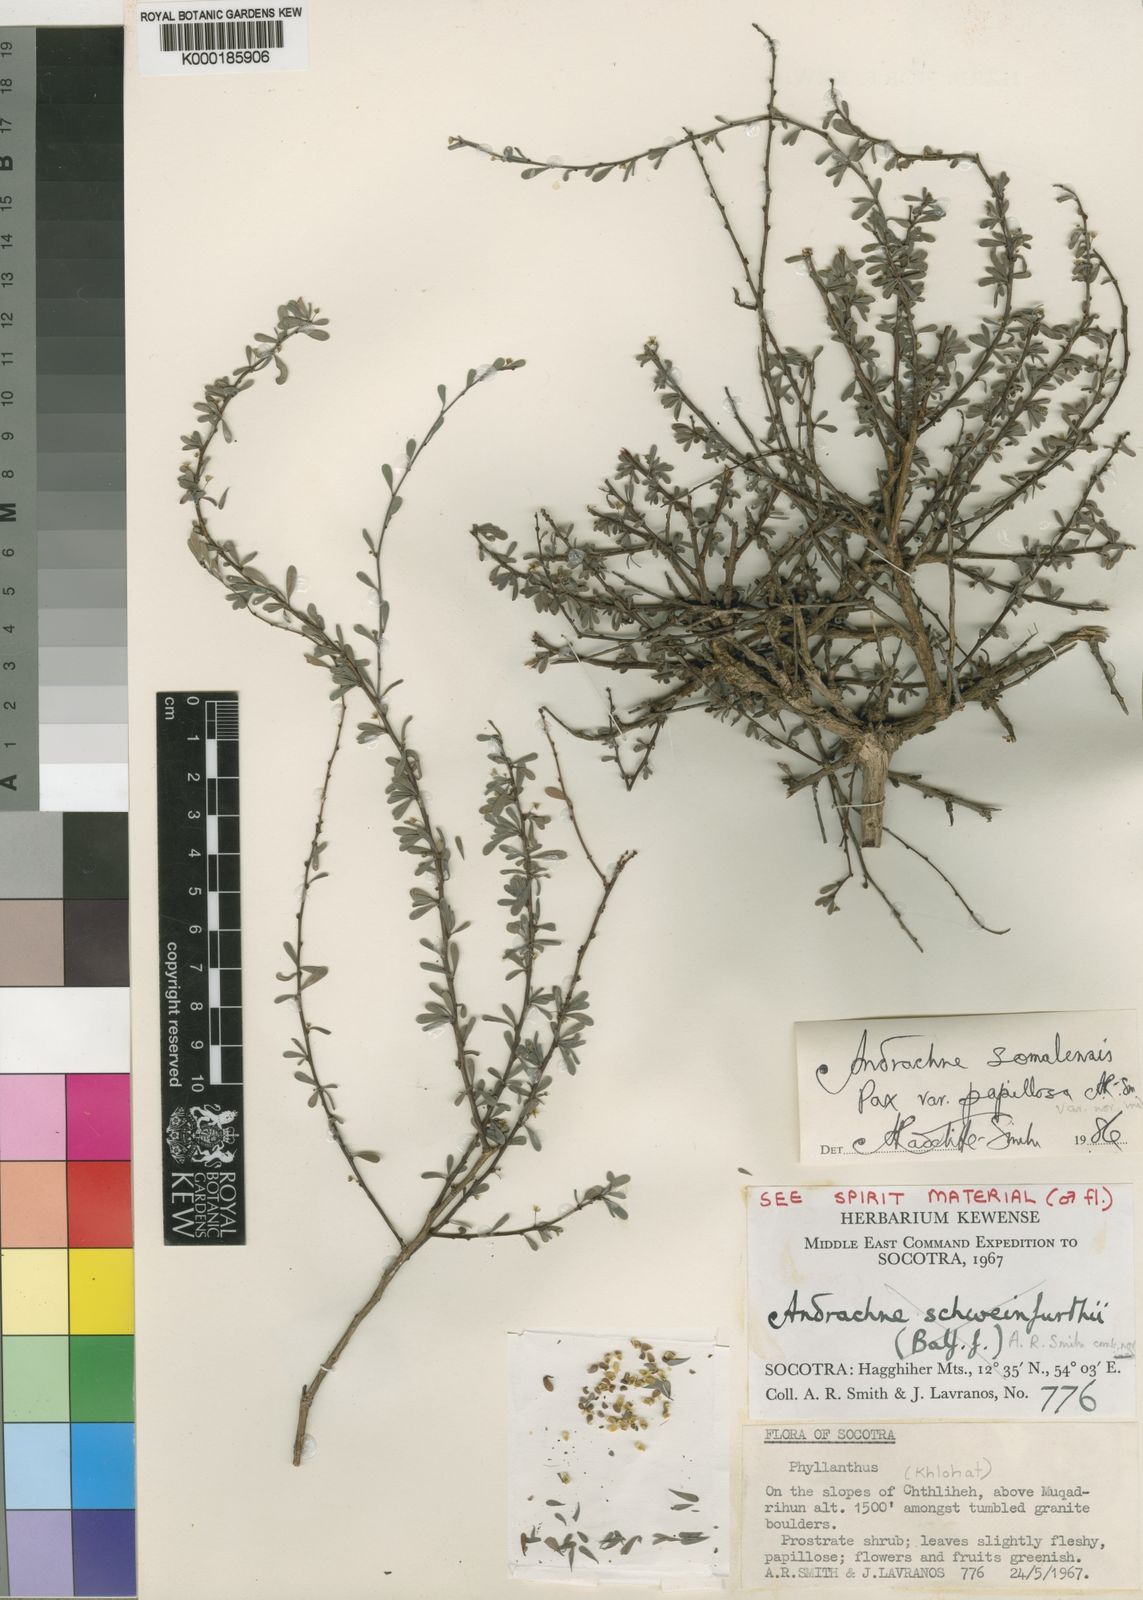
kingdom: Plantae
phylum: Tracheophyta
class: Magnoliopsida
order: Malpighiales
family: Phyllanthaceae
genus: Andrachne
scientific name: Andrachne schweinfurthii
